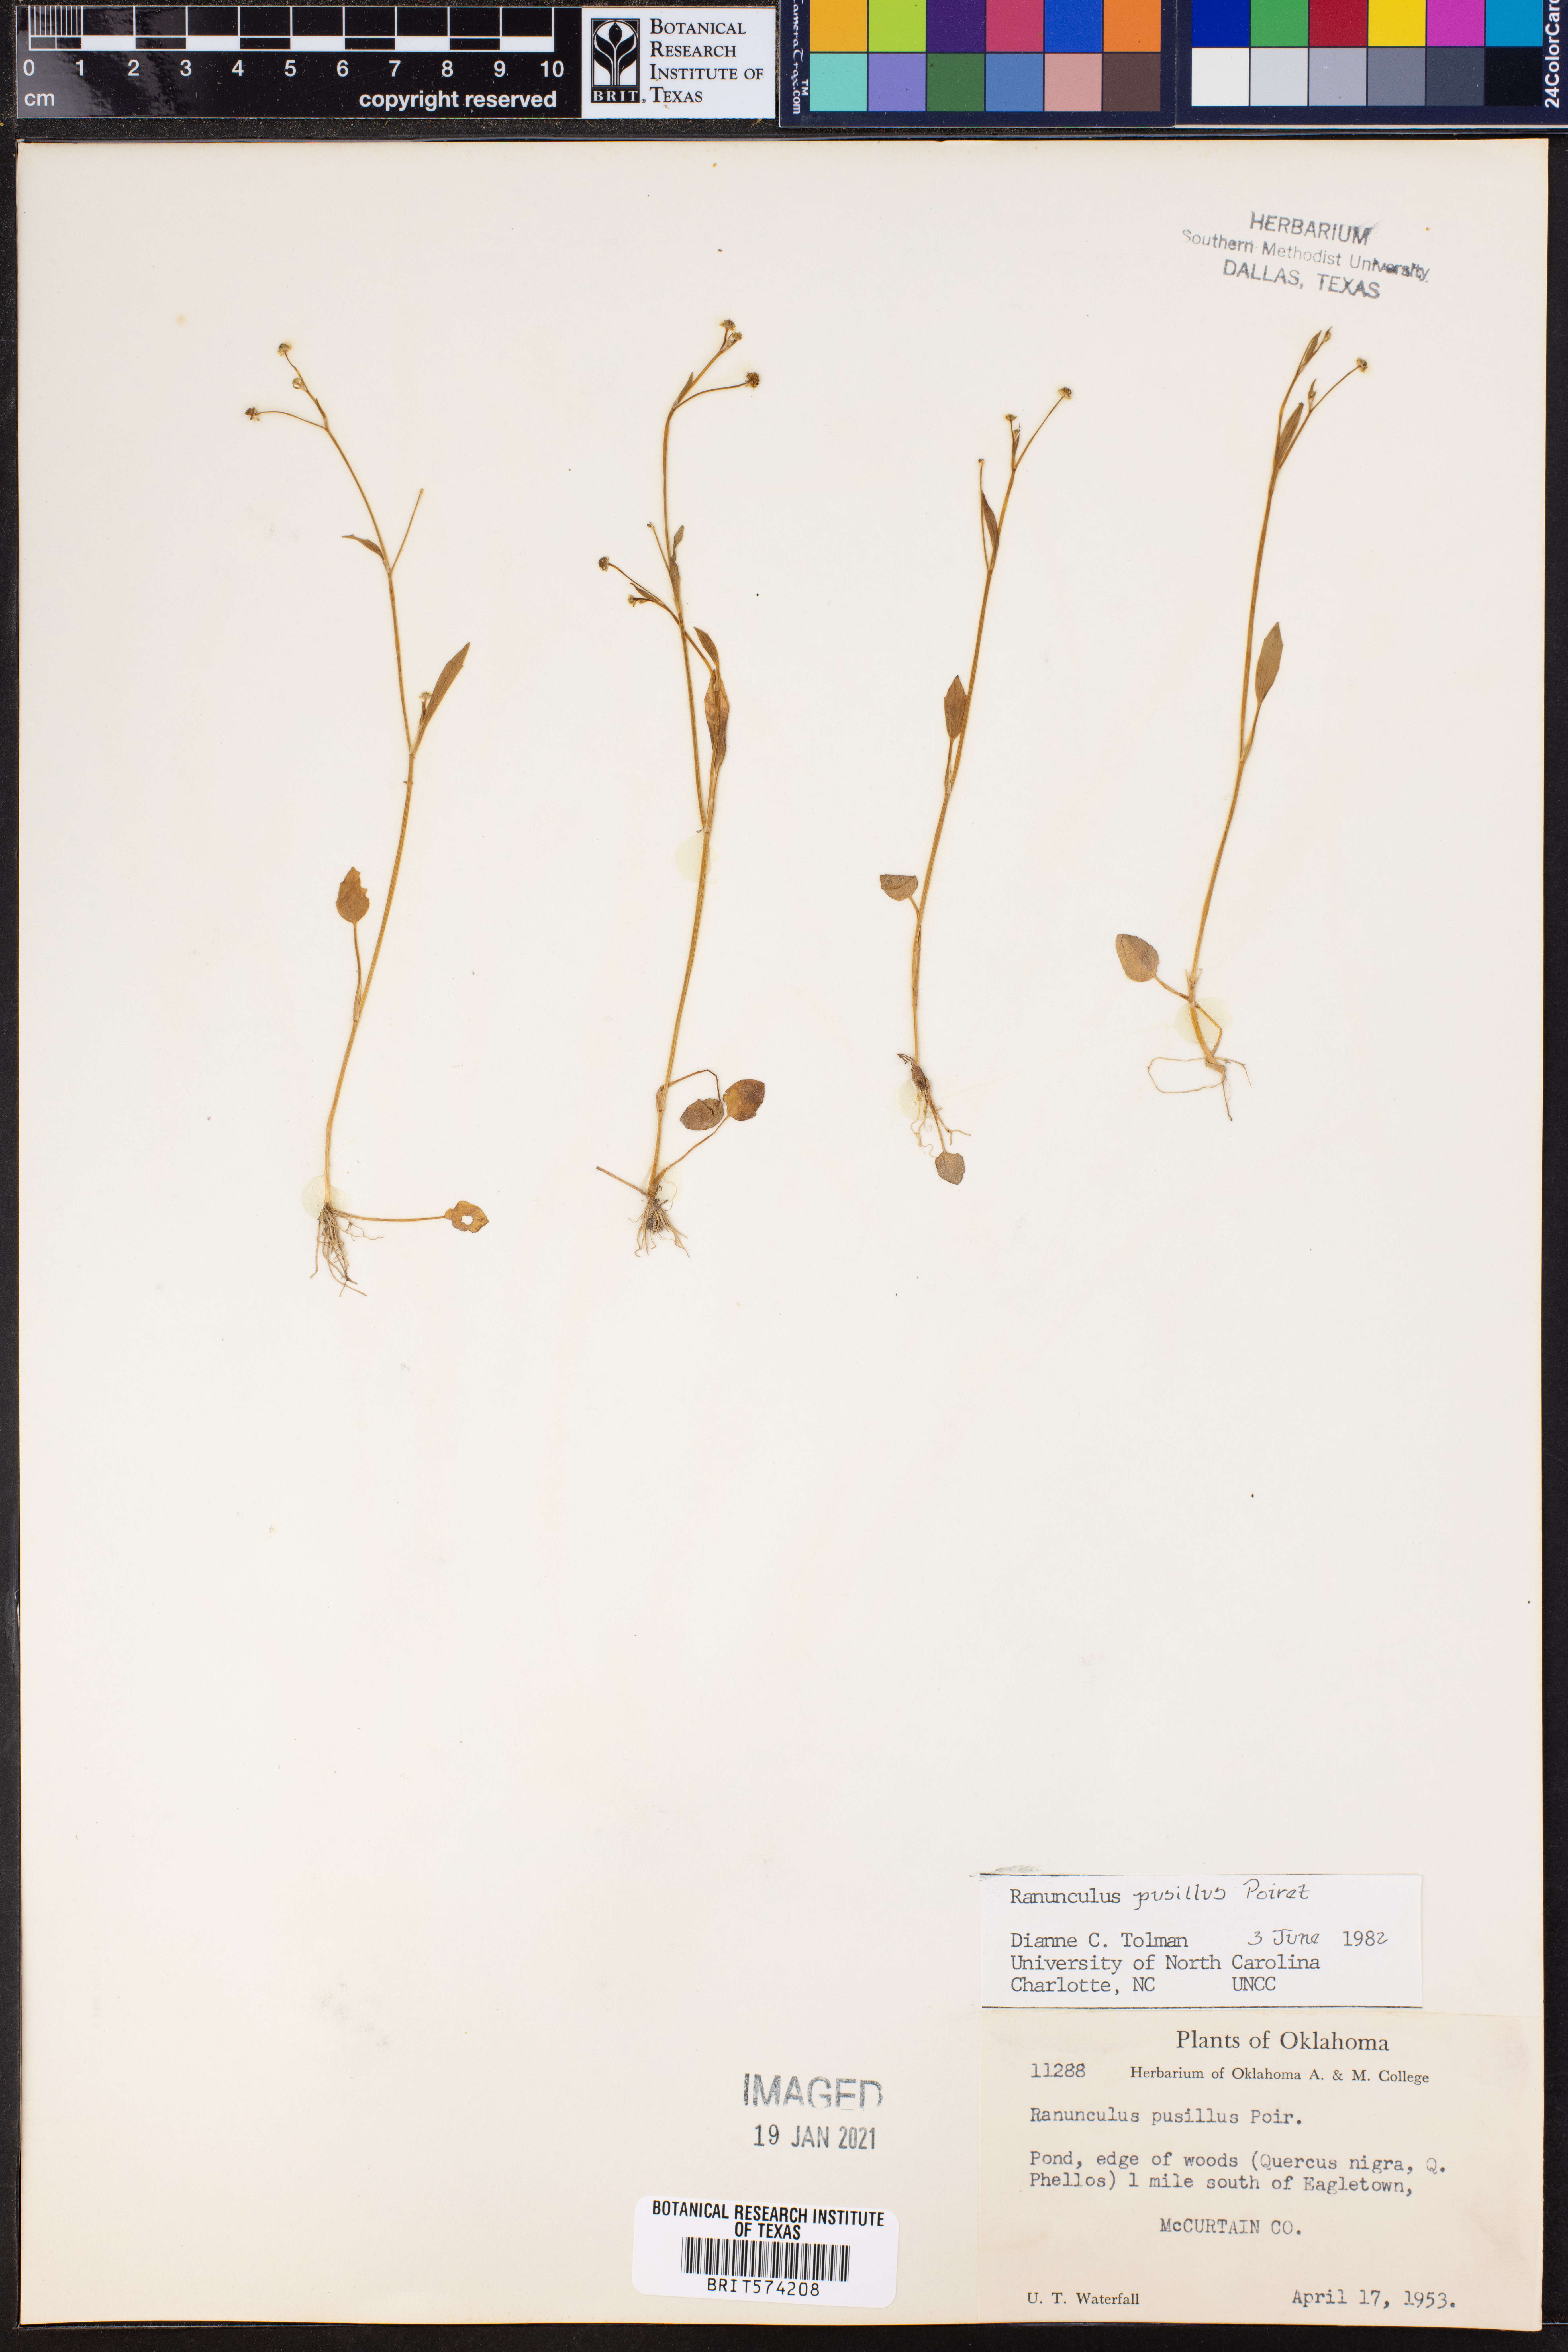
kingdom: Plantae
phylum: Tracheophyta
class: Magnoliopsida
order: Ranunculales
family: Ranunculaceae
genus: Ranunculus
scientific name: Ranunculus pusillus
